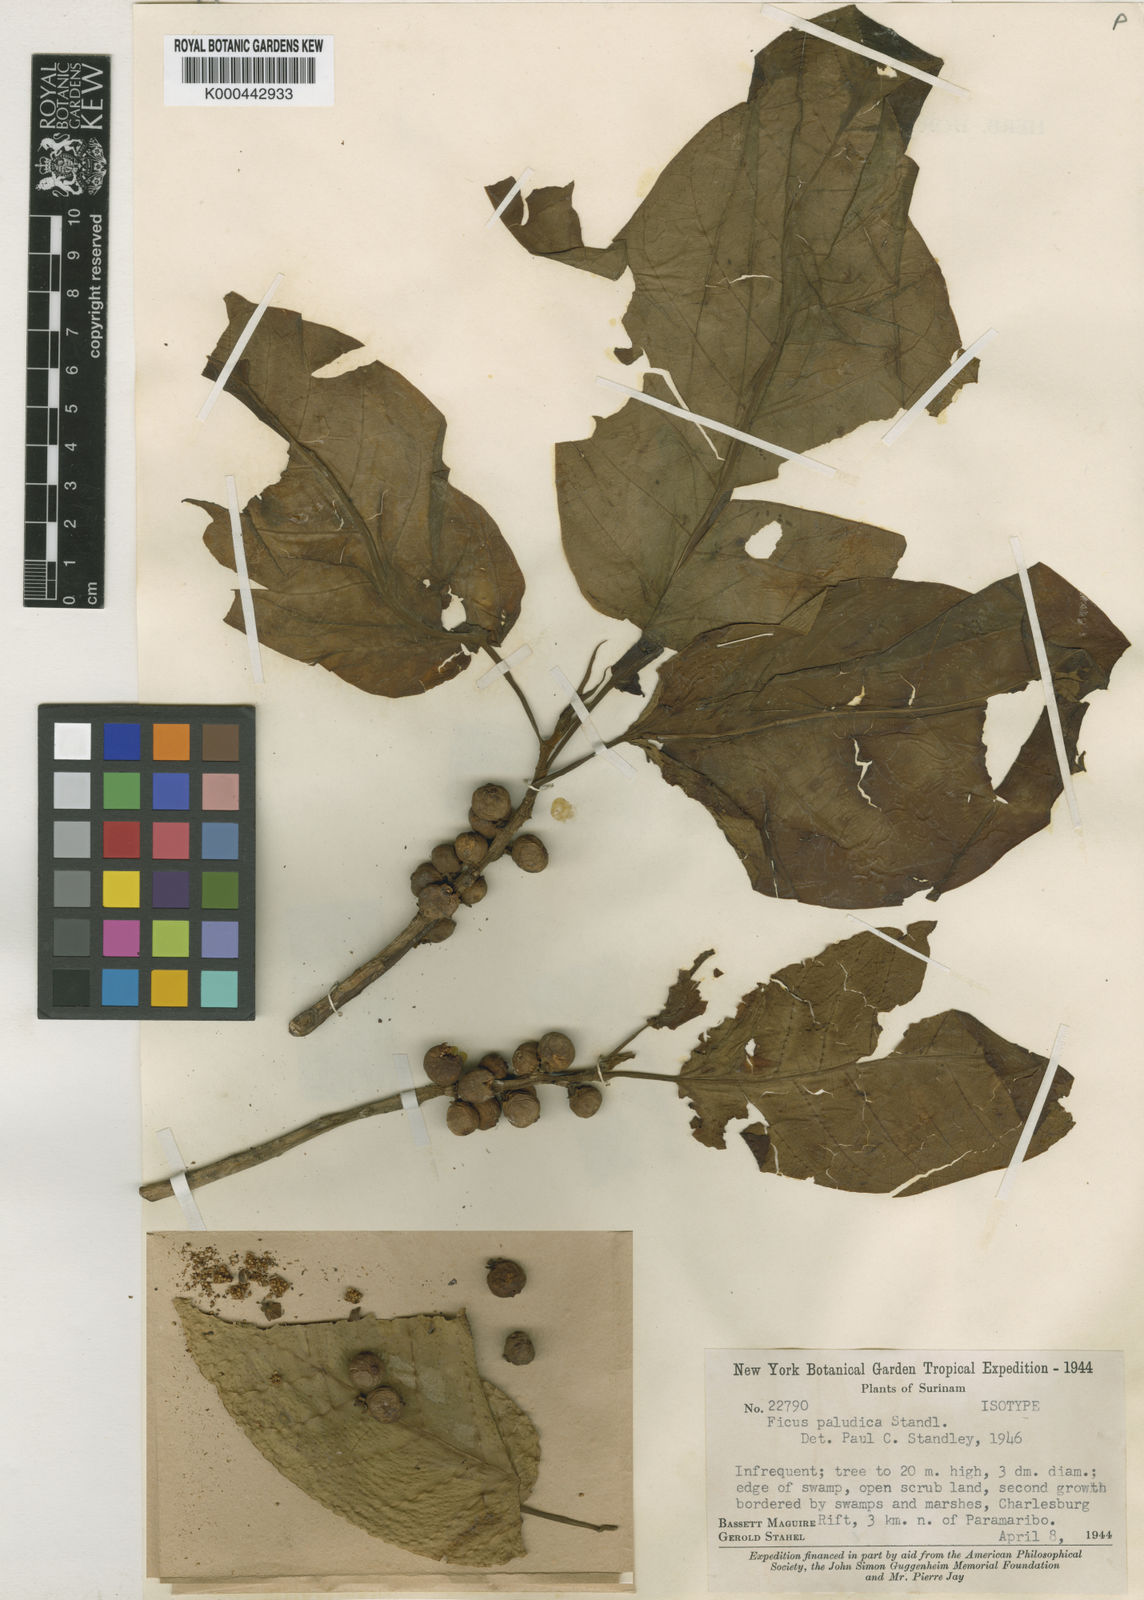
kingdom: Plantae
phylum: Tracheophyta
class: Magnoliopsida
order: Rosales
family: Moraceae
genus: Ficus
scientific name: Ficus crocata
